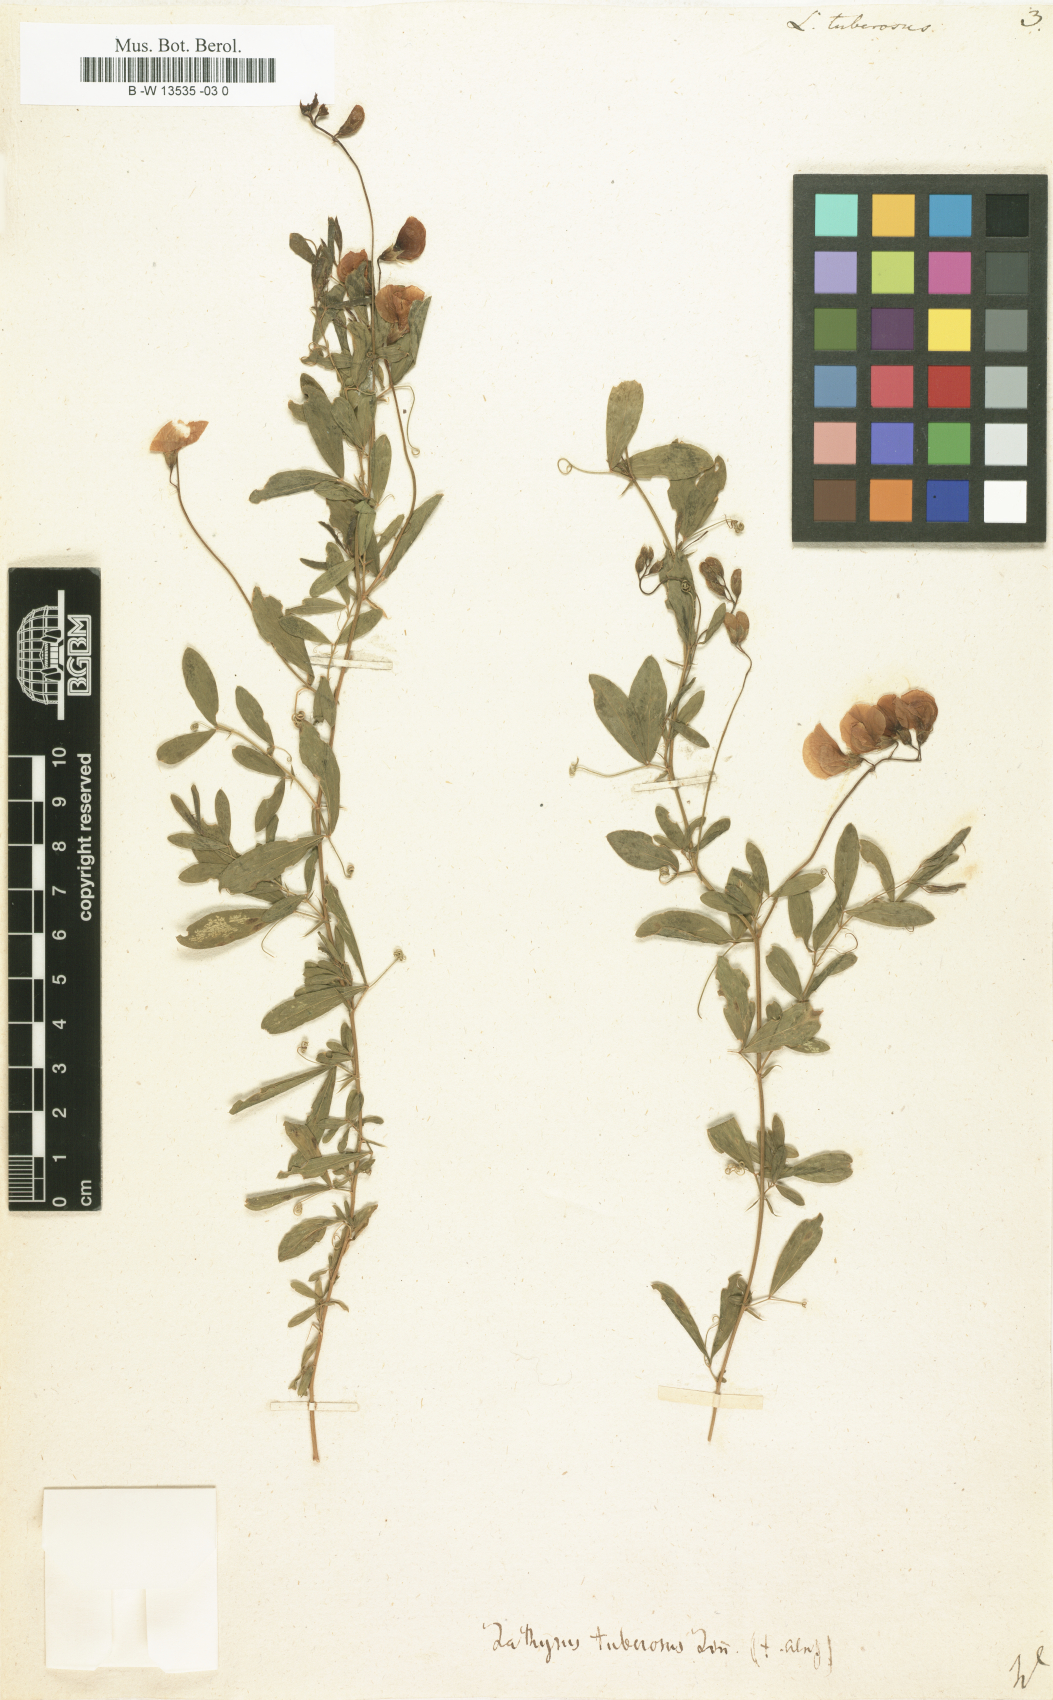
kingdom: Plantae
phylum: Tracheophyta
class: Magnoliopsida
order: Fabales
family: Fabaceae
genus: Lathyrus
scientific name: Lathyrus tuberosus
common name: Tuberous pea
